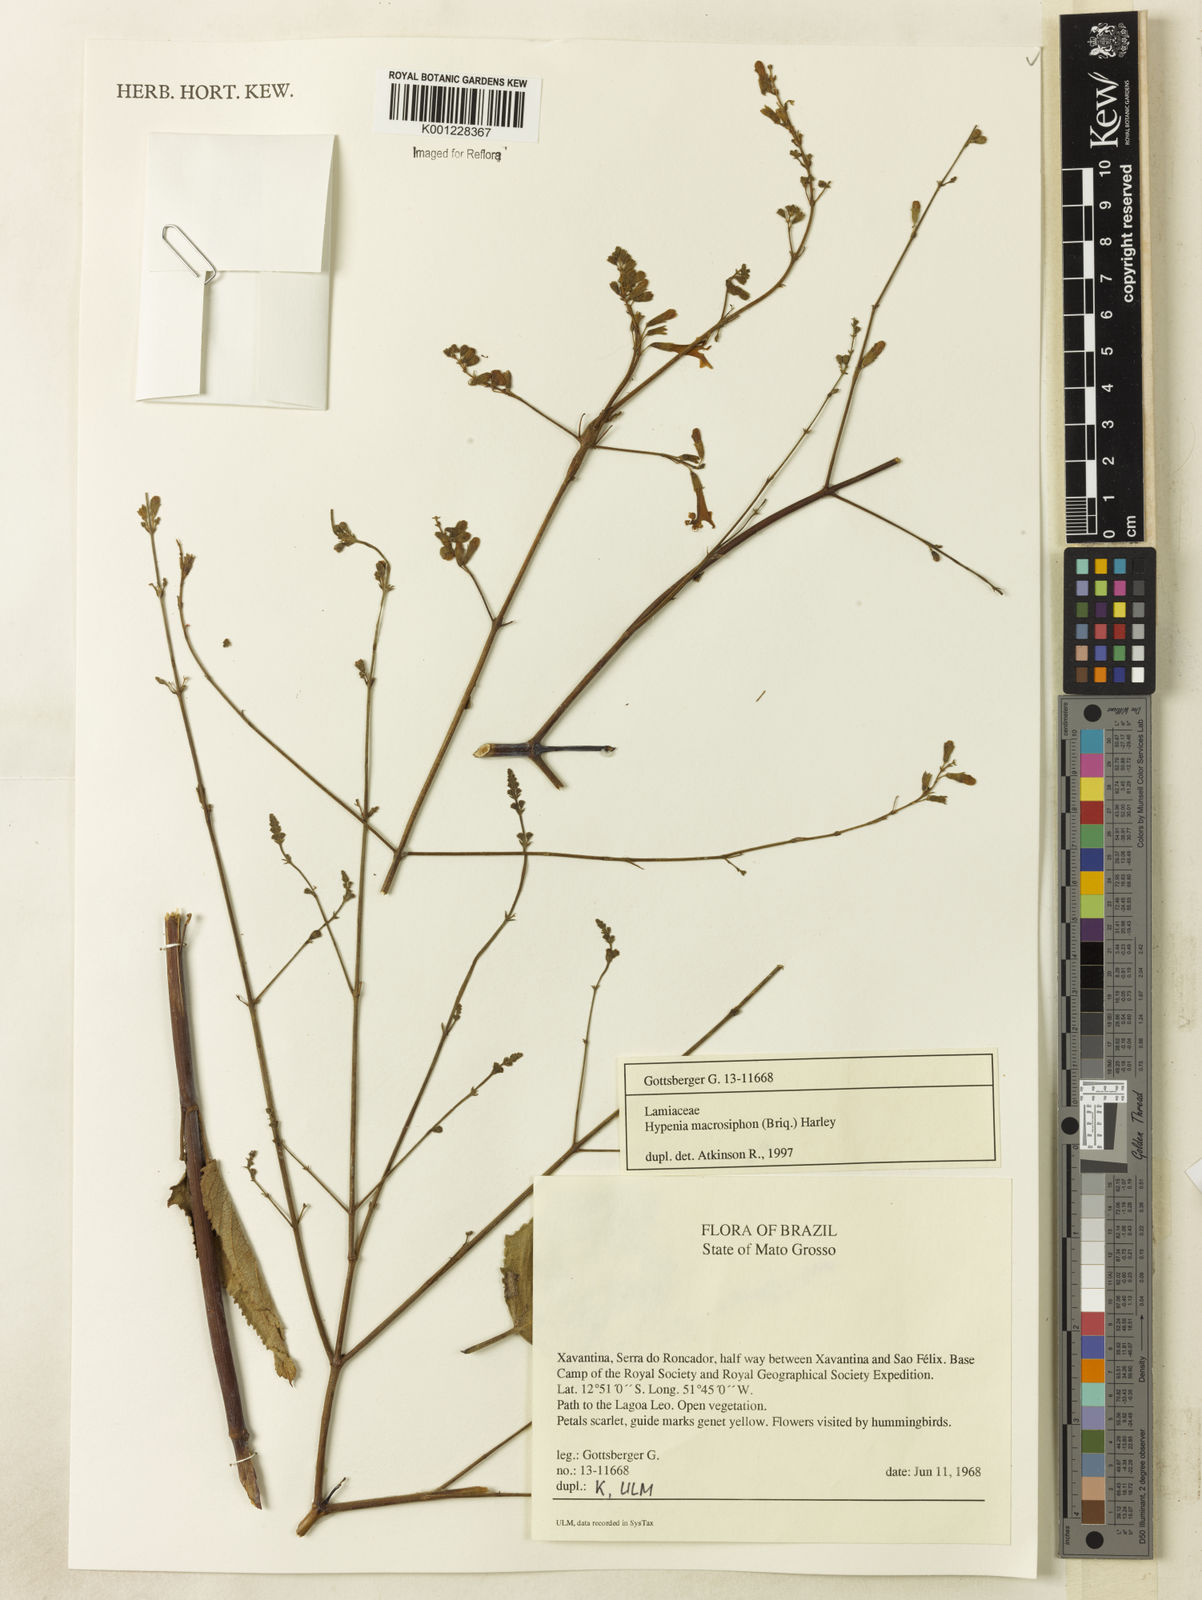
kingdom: Plantae
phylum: Tracheophyta
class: Magnoliopsida
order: Lamiales
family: Lamiaceae
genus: Hypenia
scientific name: Hypenia macrosiphon
